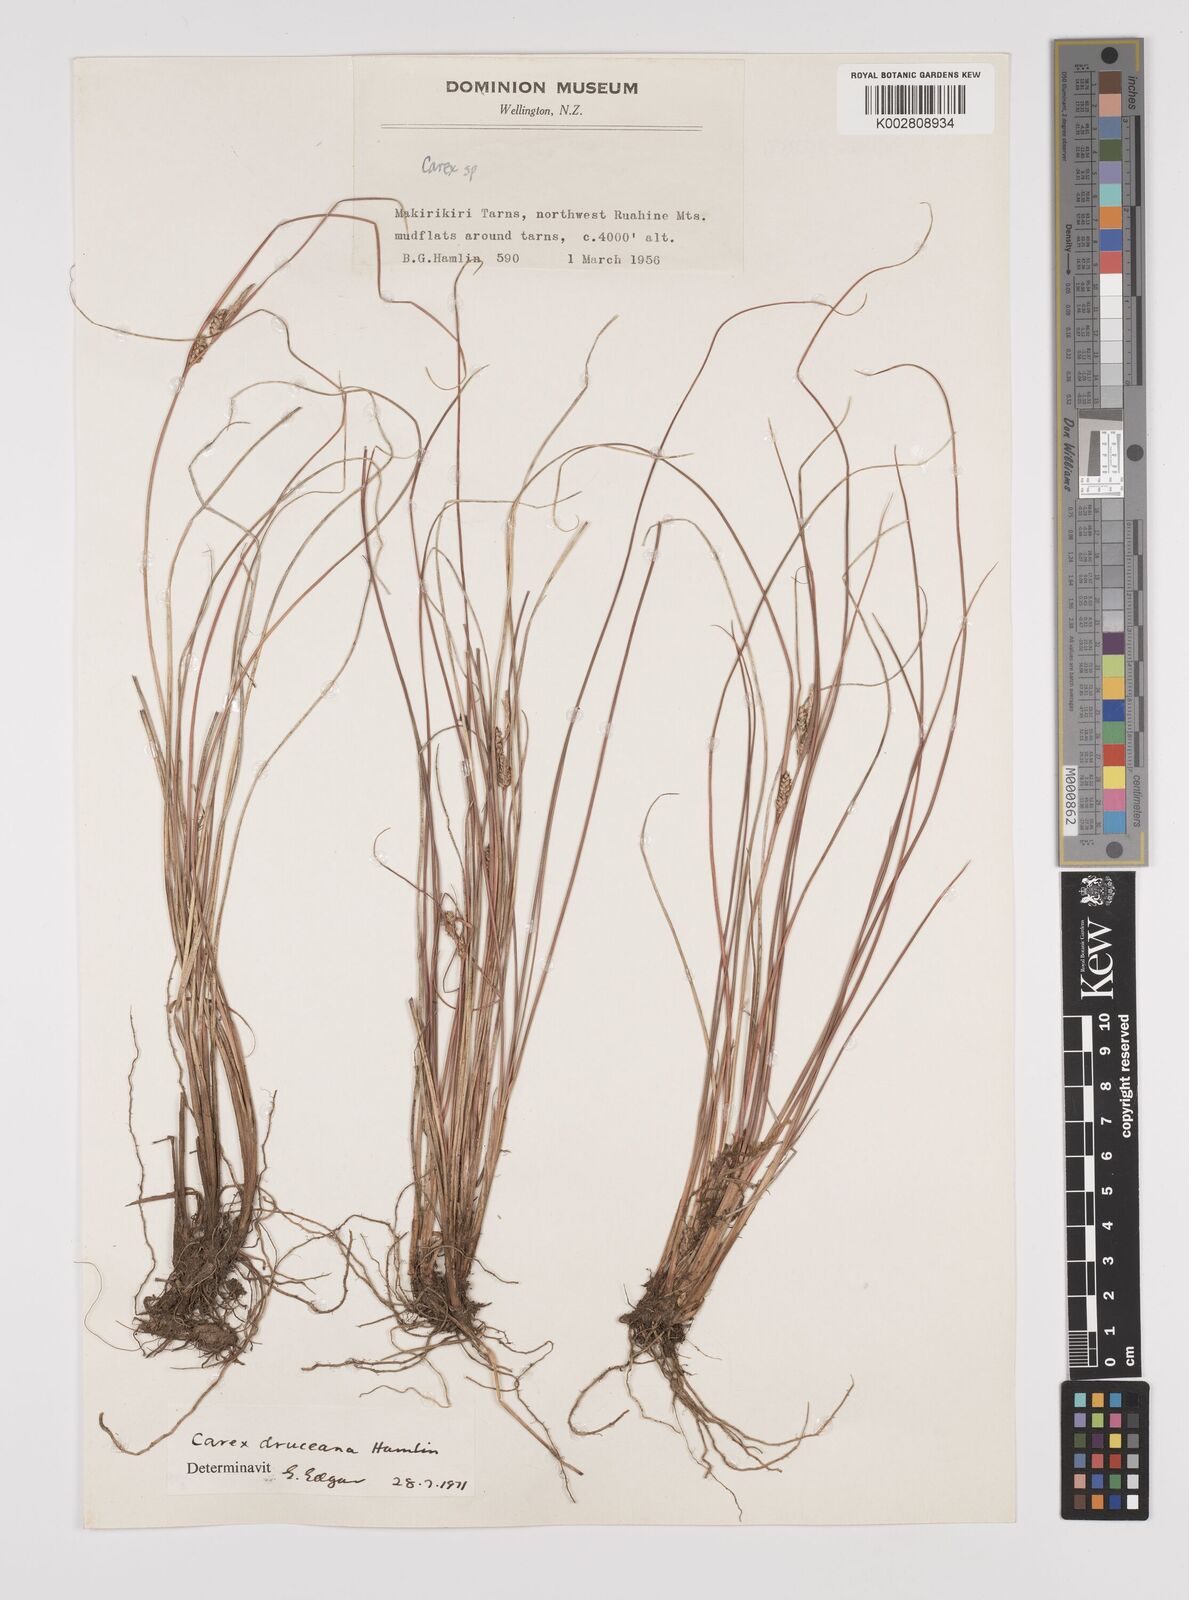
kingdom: Plantae
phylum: Tracheophyta
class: Liliopsida
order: Poales
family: Cyperaceae
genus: Carex
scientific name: Carex druceana
